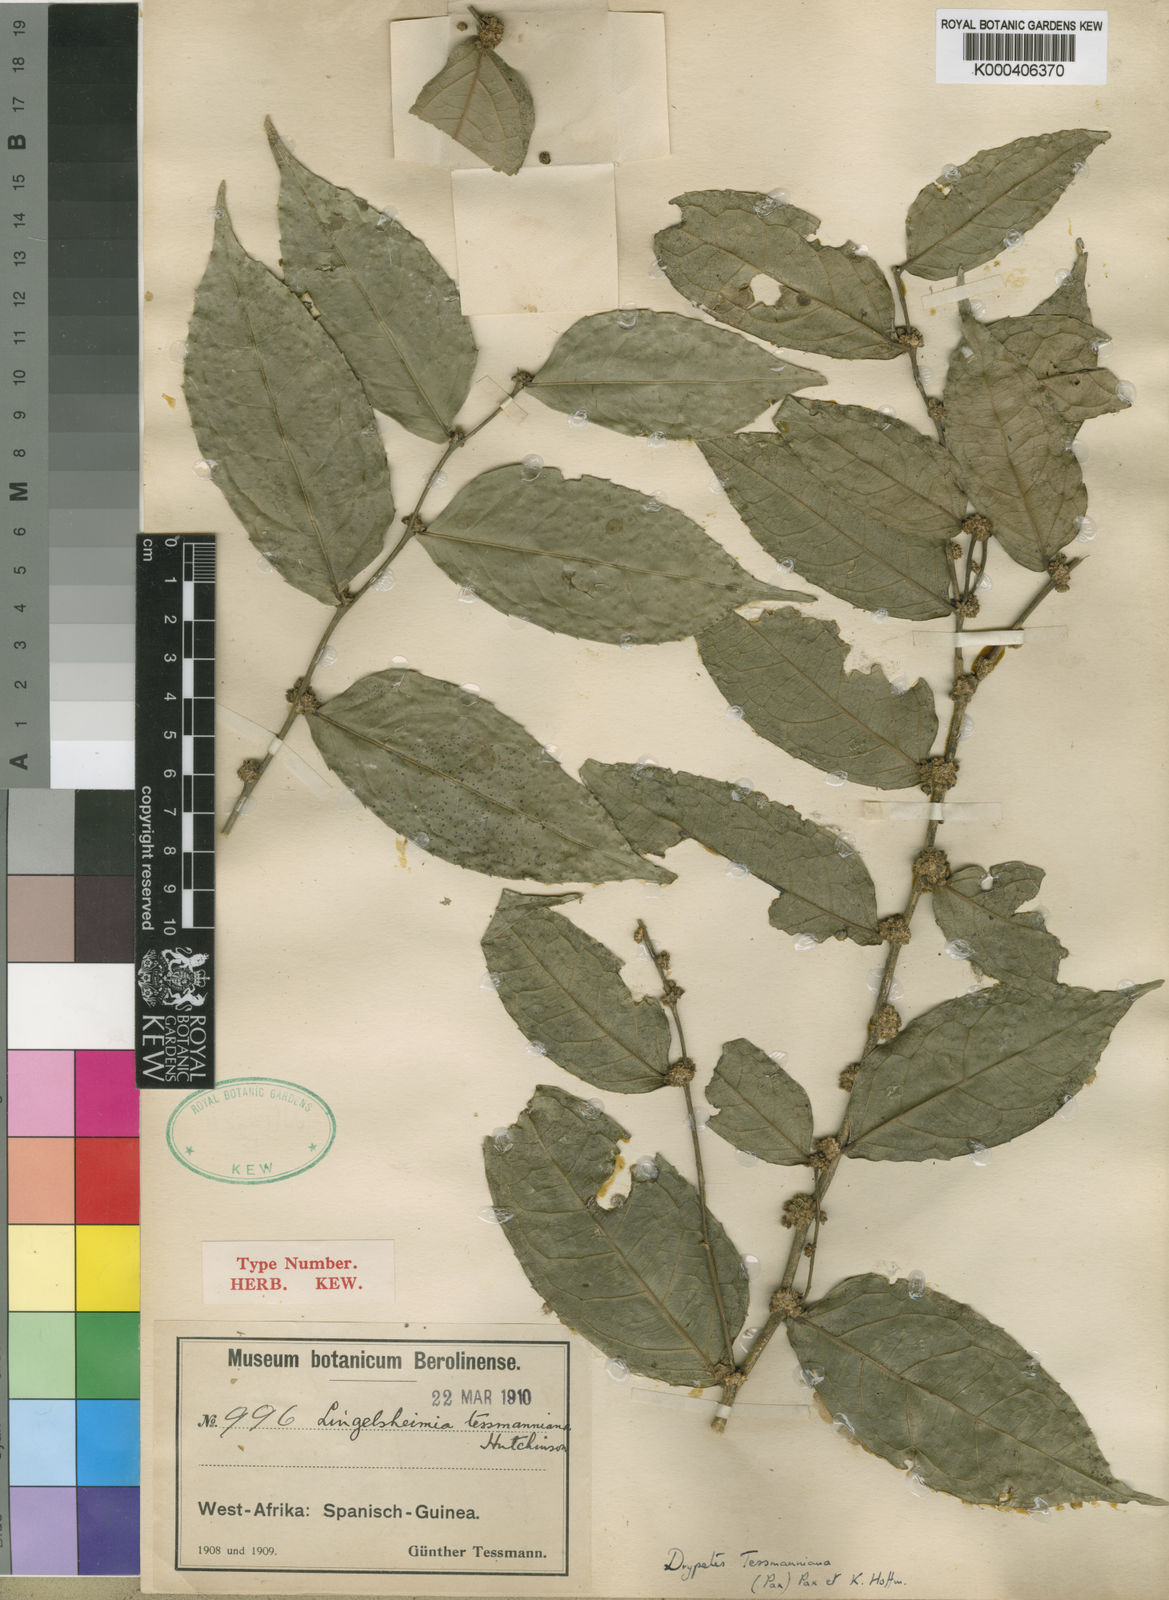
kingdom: Plantae
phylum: Tracheophyta
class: Magnoliopsida
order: Malpighiales
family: Putranjivaceae
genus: Drypetes
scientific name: Drypetes tessmanniana
